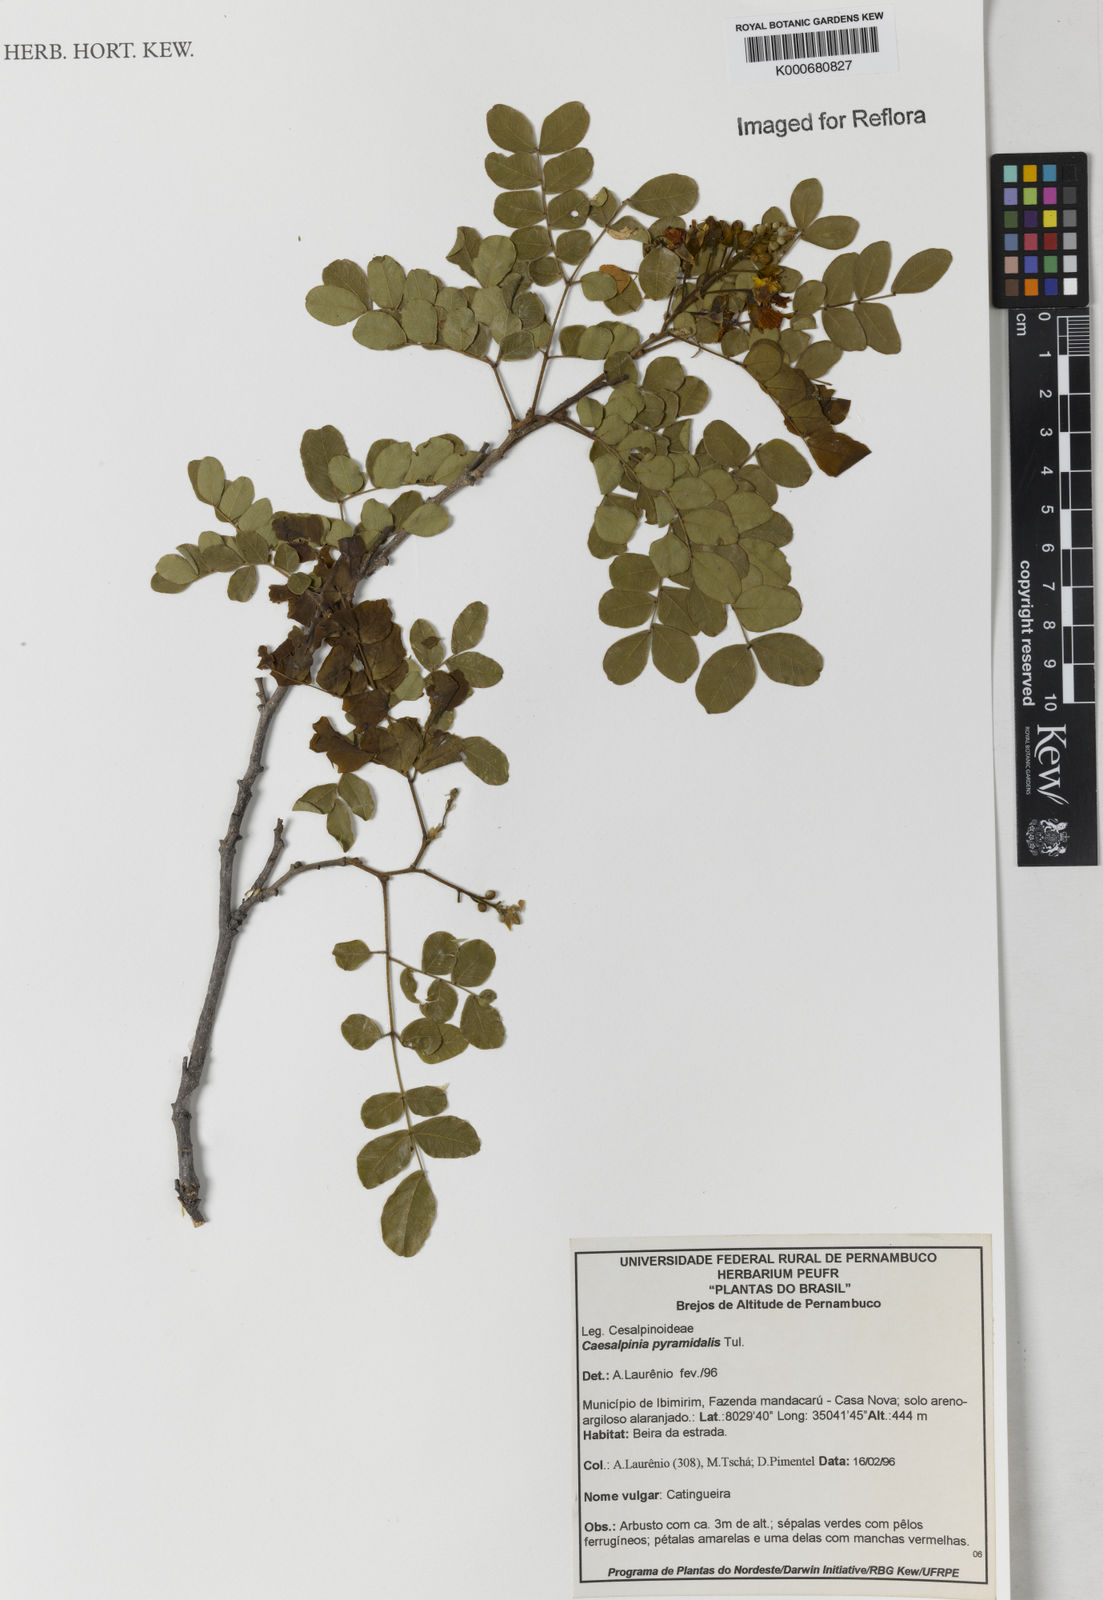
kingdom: Plantae
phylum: Tracheophyta
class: Magnoliopsida
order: Fabales
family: Fabaceae
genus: Cenostigma
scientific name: Cenostigma pyramidale
